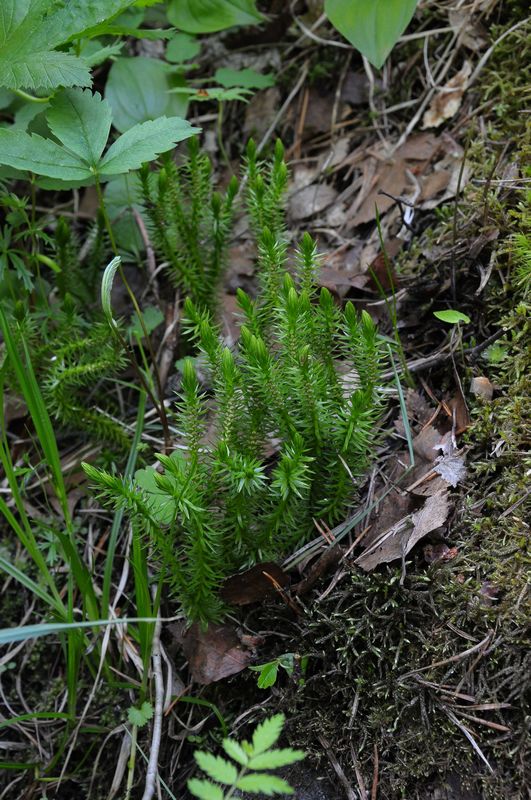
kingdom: Plantae
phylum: Tracheophyta
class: Lycopodiopsida
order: Lycopodiales
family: Lycopodiaceae
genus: Huperzia
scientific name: Huperzia selago
